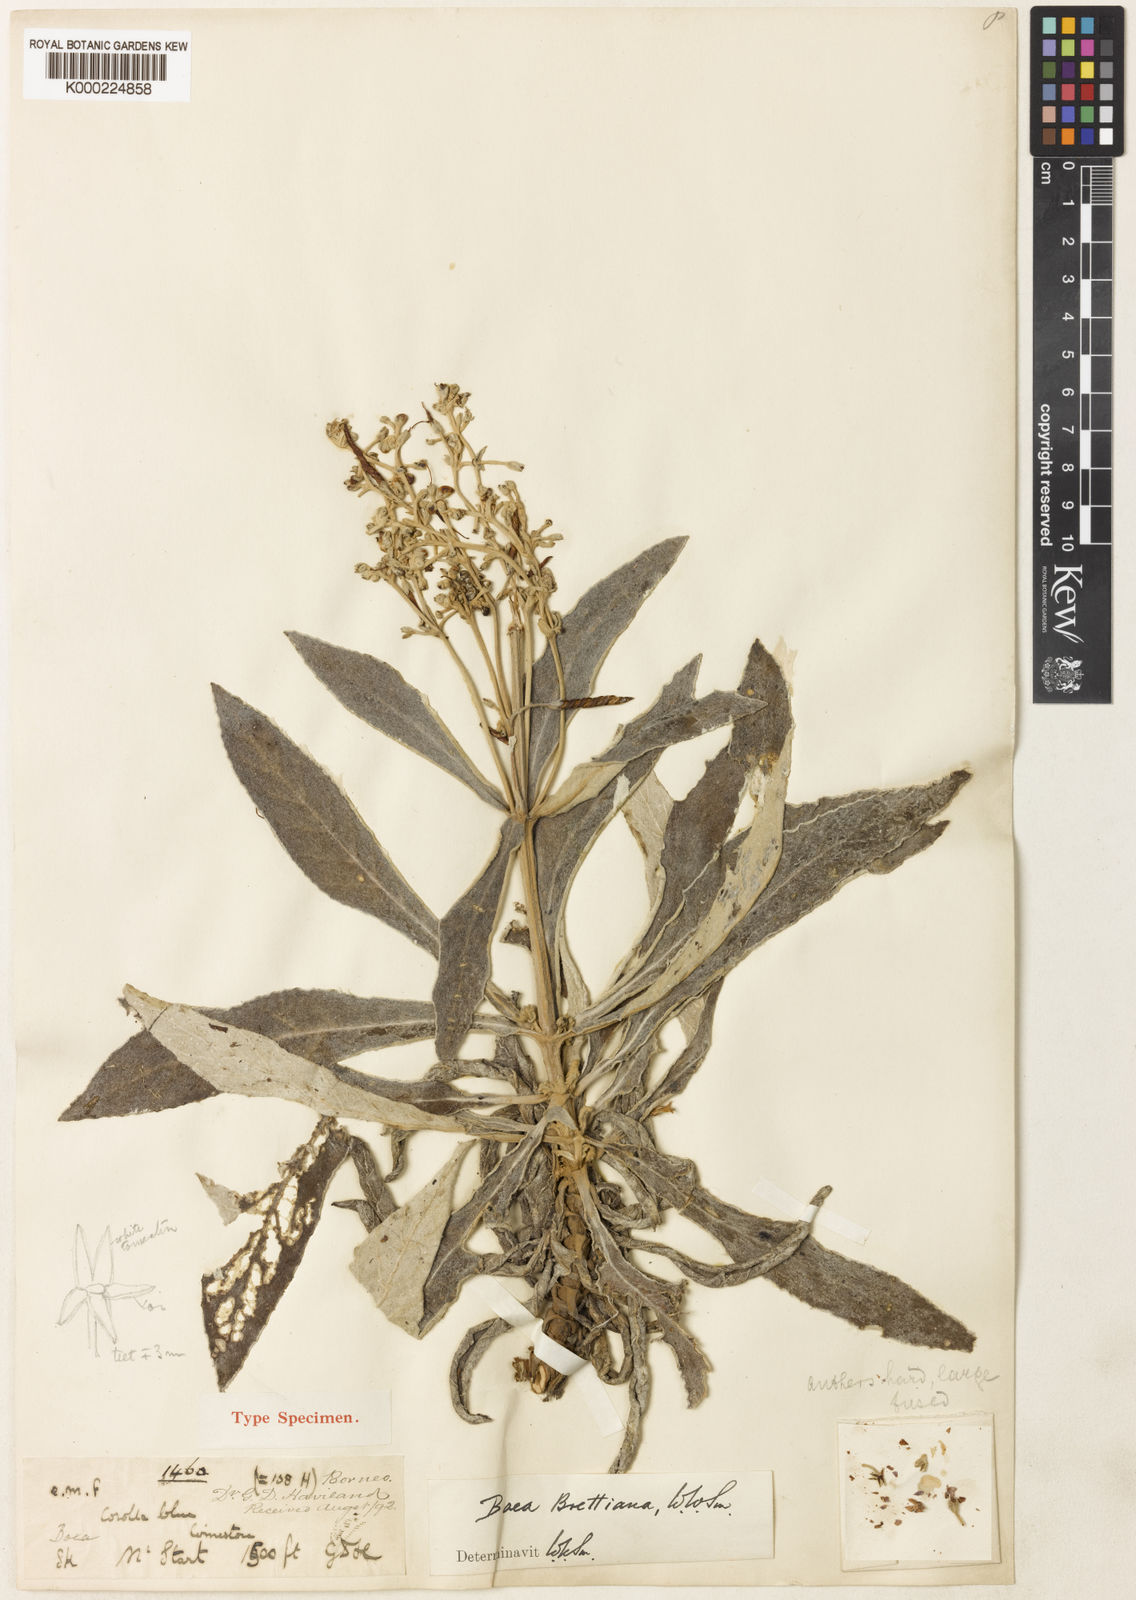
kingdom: Plantae
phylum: Tracheophyta
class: Magnoliopsida
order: Lamiales
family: Gesneriaceae
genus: Paraboea
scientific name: Paraboea havilandii
